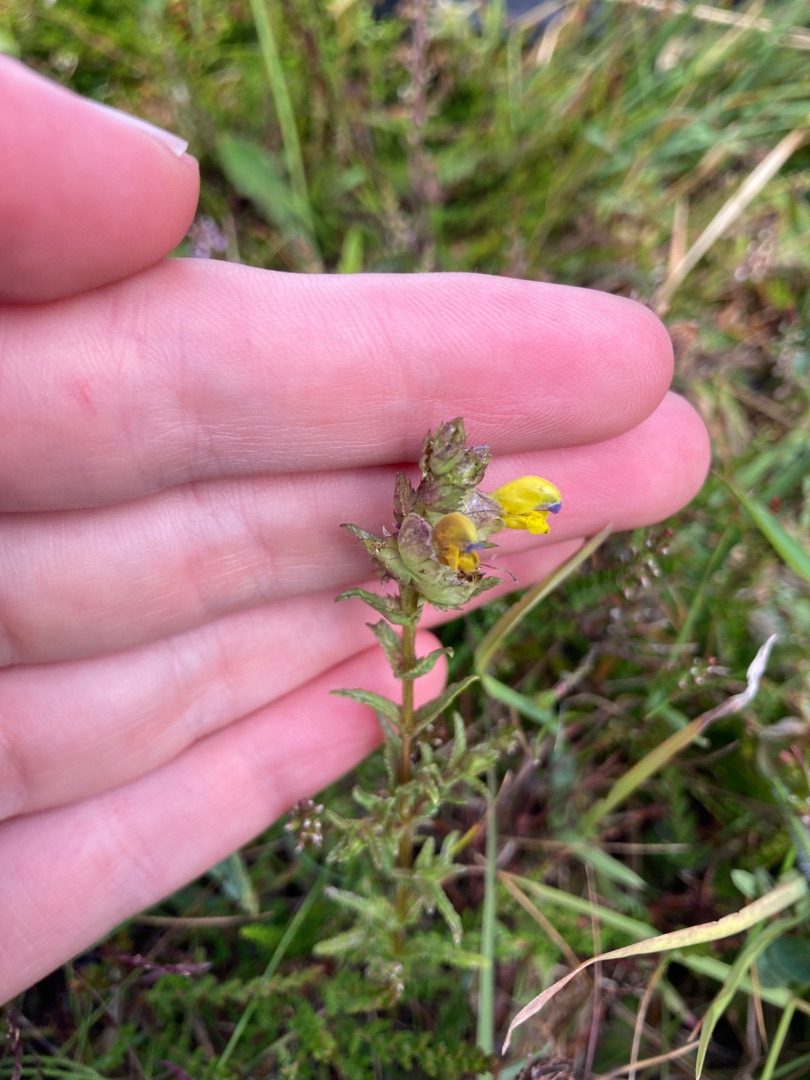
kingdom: Plantae
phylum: Tracheophyta
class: Magnoliopsida
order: Lamiales
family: Orobanchaceae
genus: Rhinanthus
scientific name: Rhinanthus minor
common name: Liden skjaller
